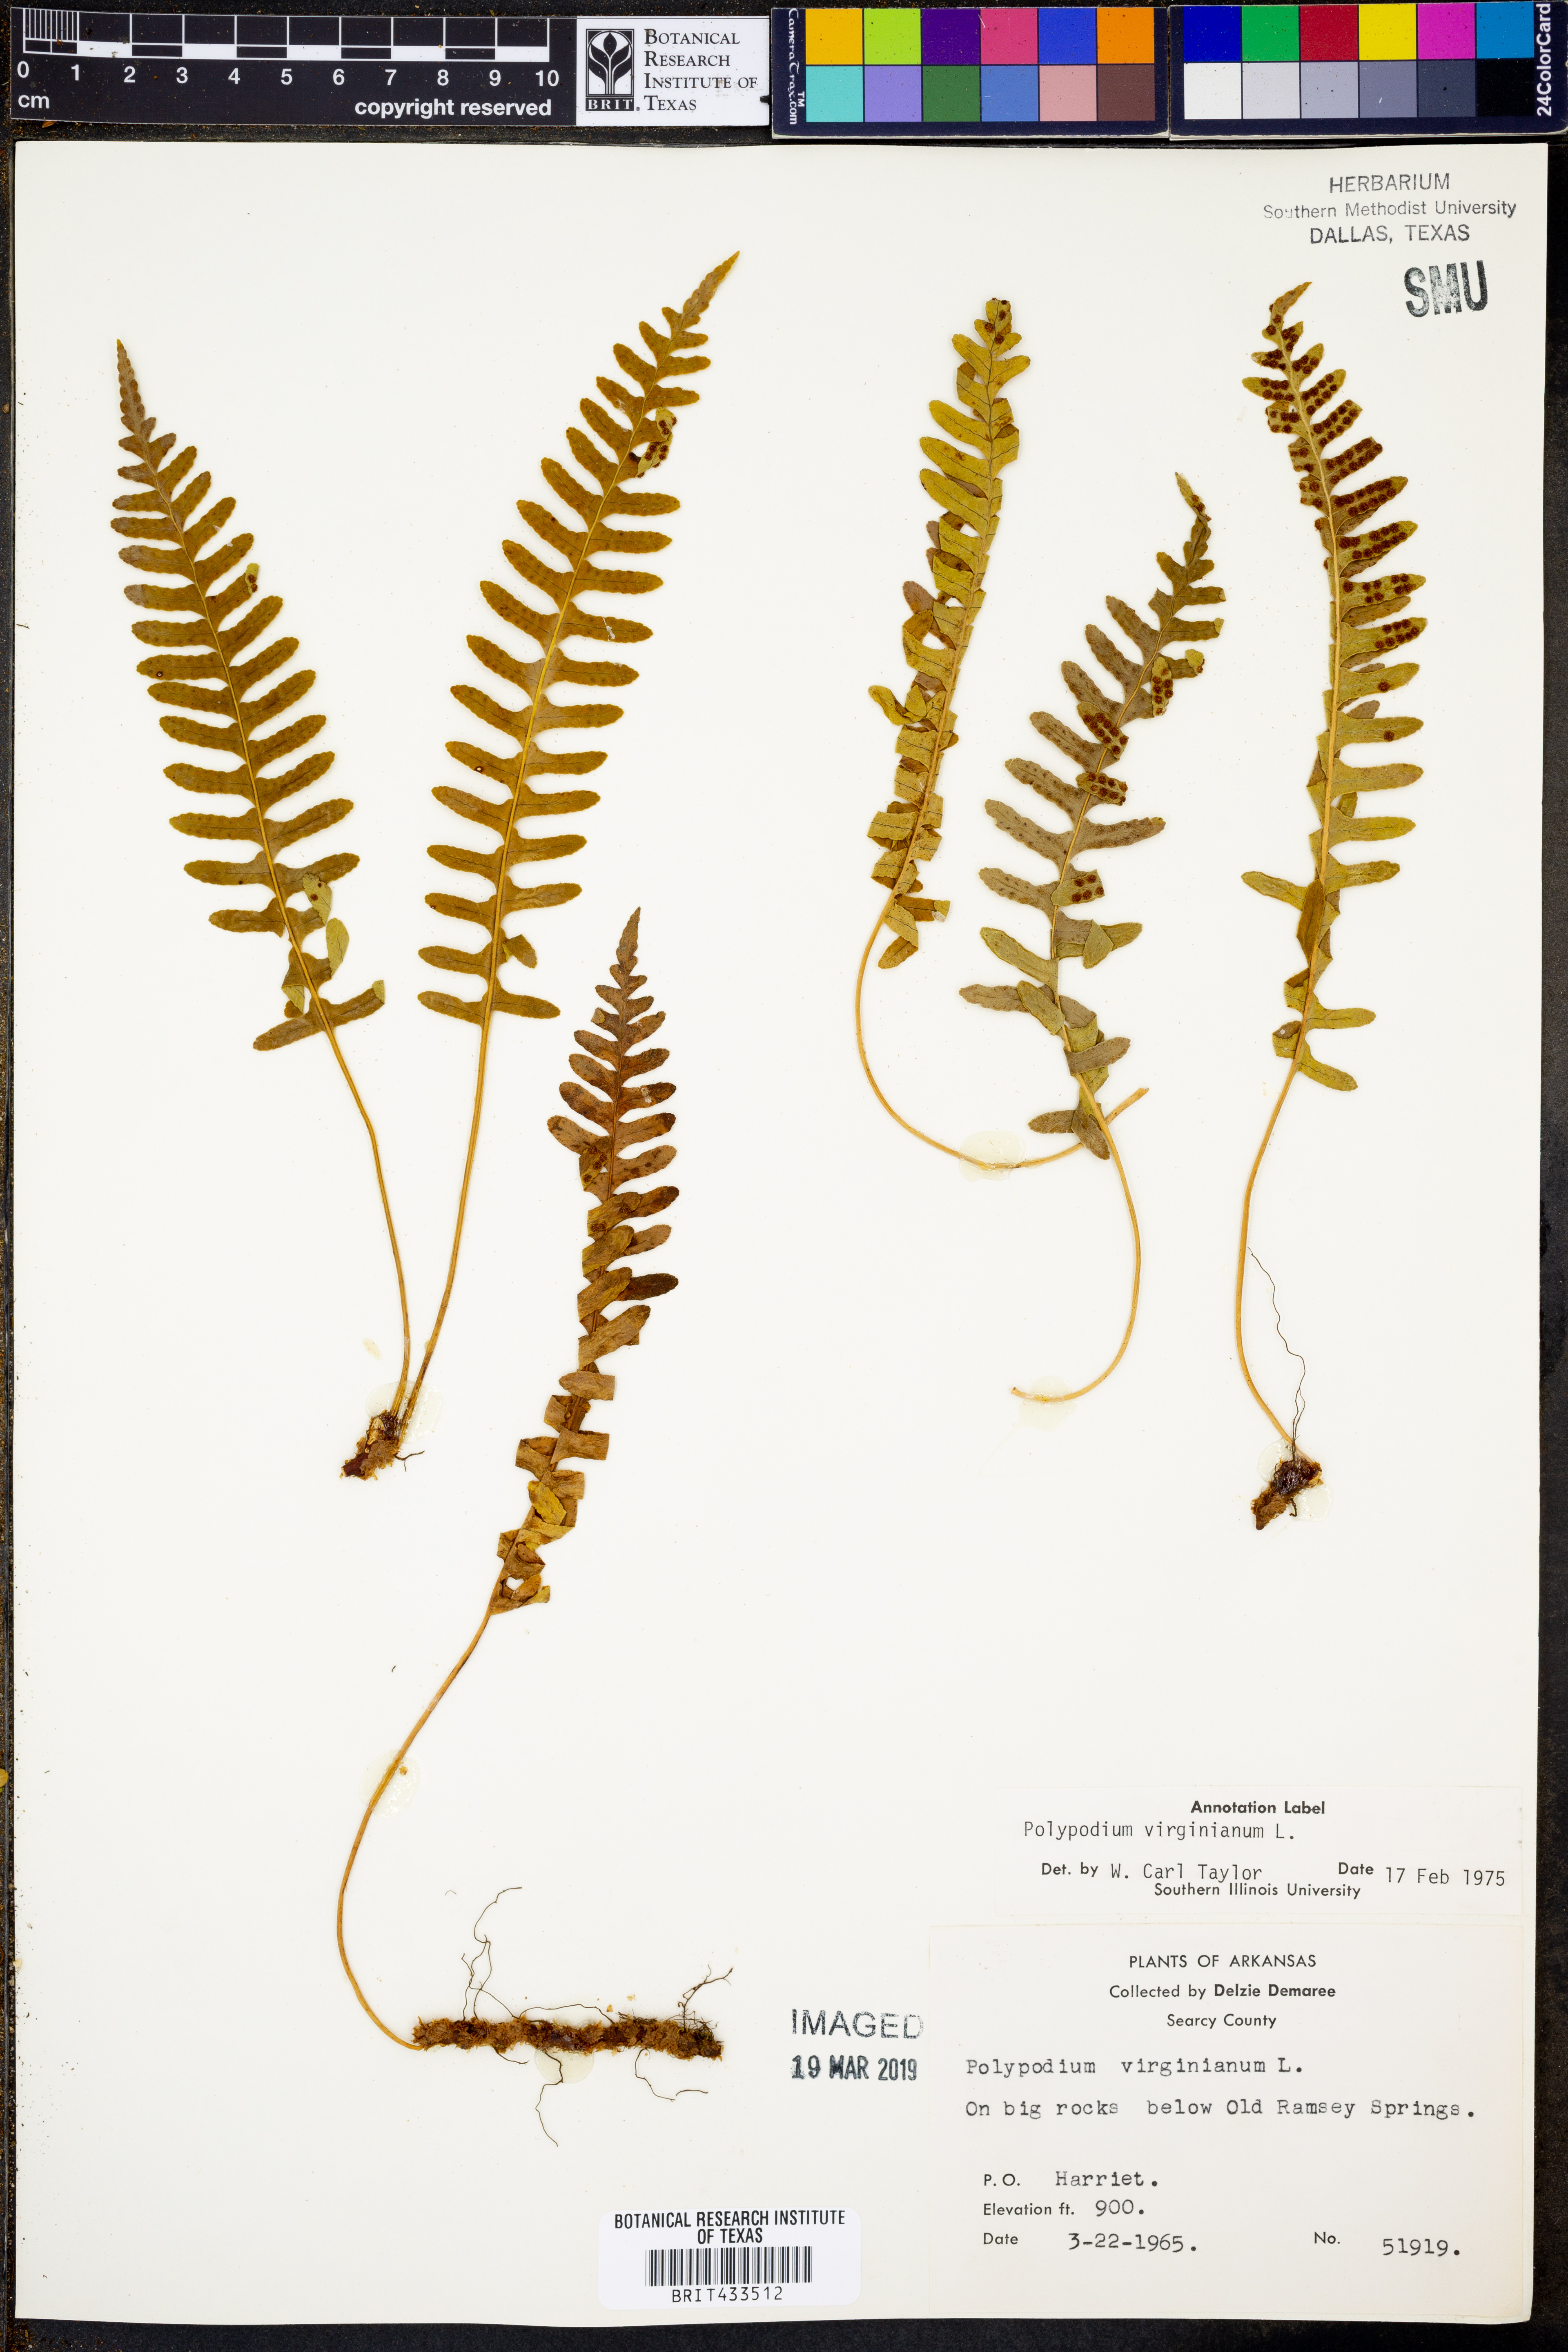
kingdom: Plantae
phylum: Tracheophyta
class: Polypodiopsida
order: Polypodiales
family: Polypodiaceae
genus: Polypodium
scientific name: Polypodium virginianum
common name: American wall fern
